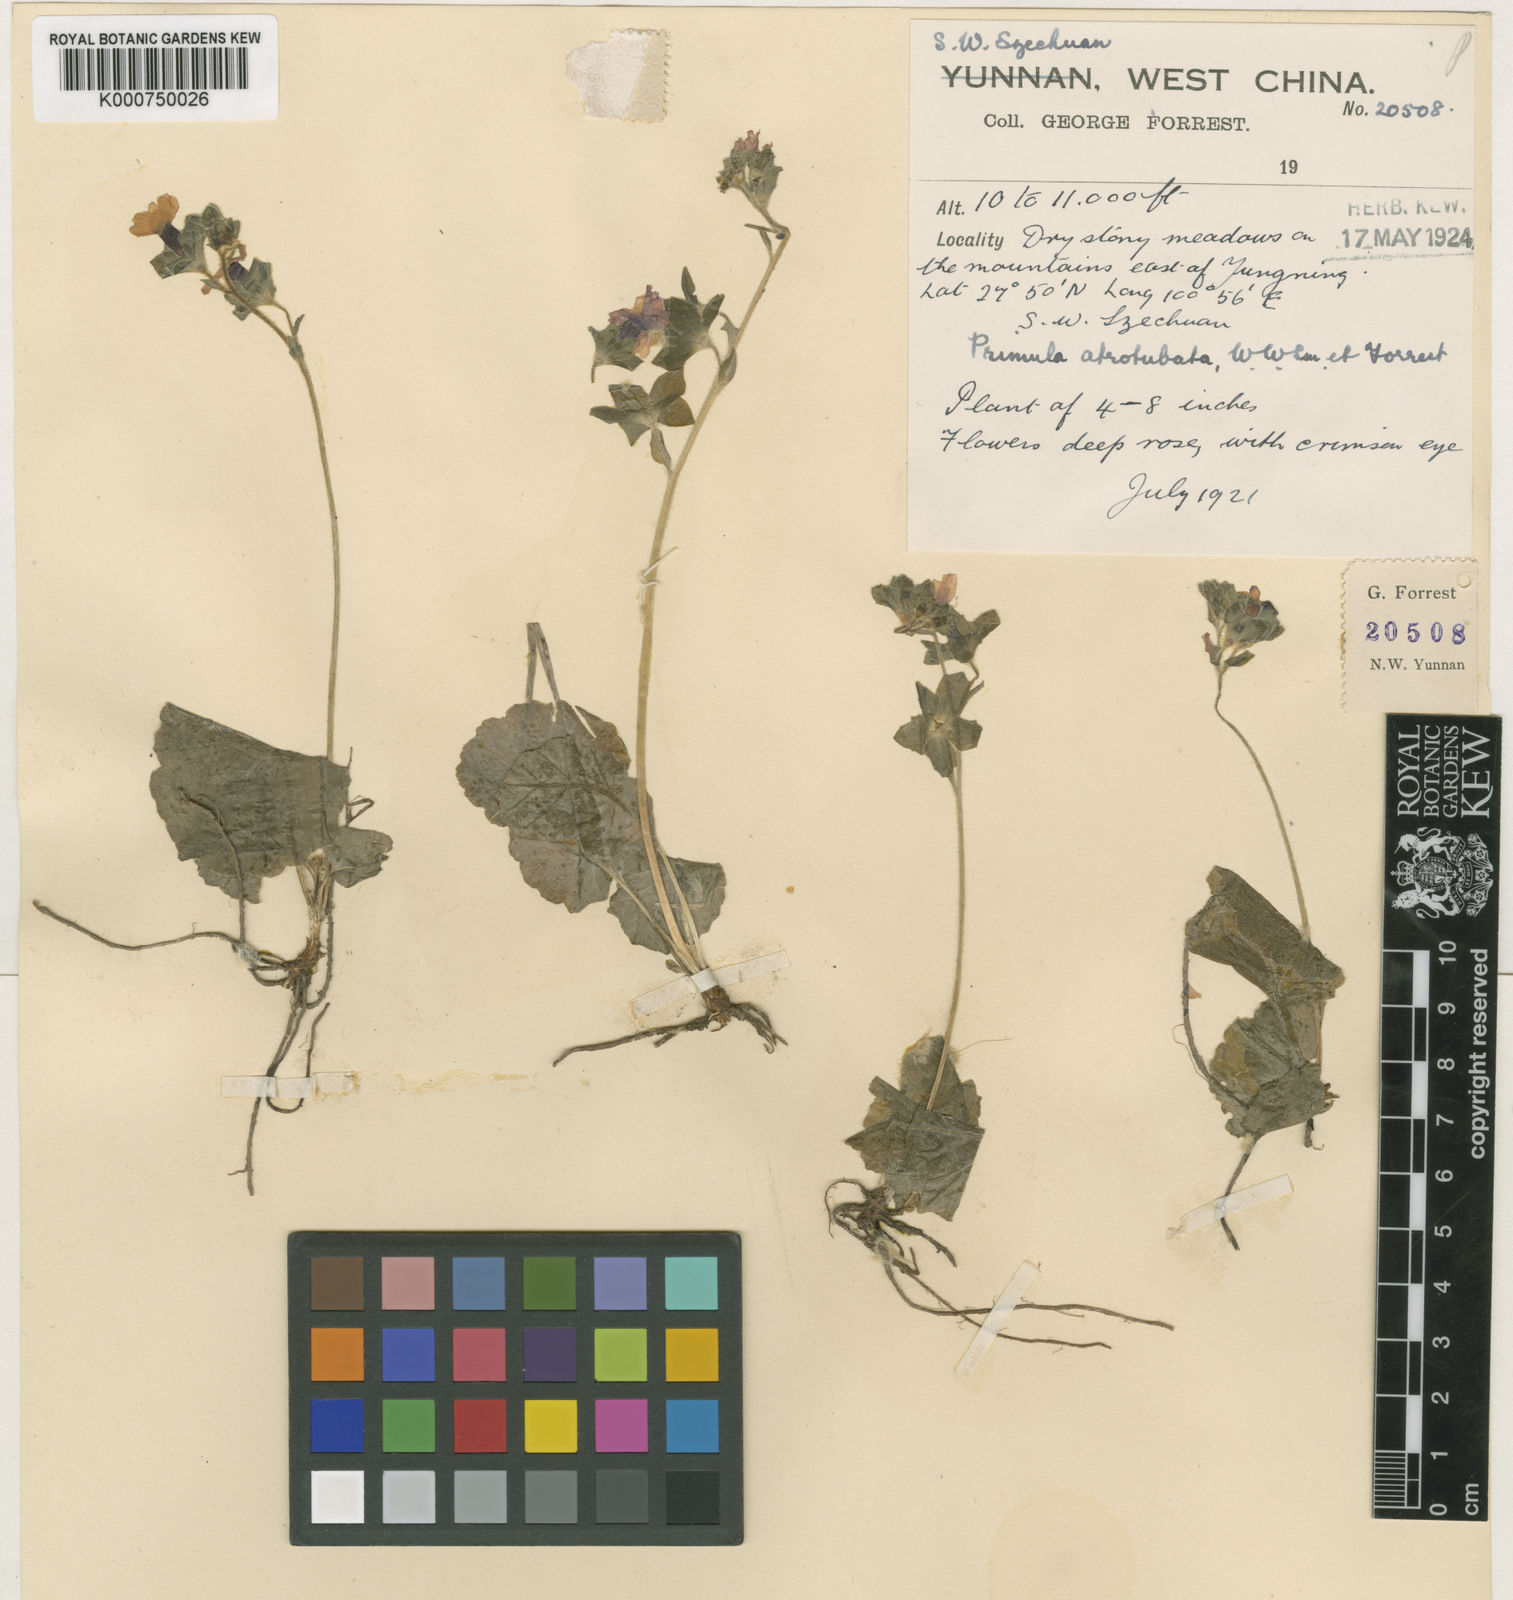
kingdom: Plantae
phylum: Tracheophyta
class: Magnoliopsida
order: Ericales
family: Primulaceae
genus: Primula
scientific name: Primula malvacea
